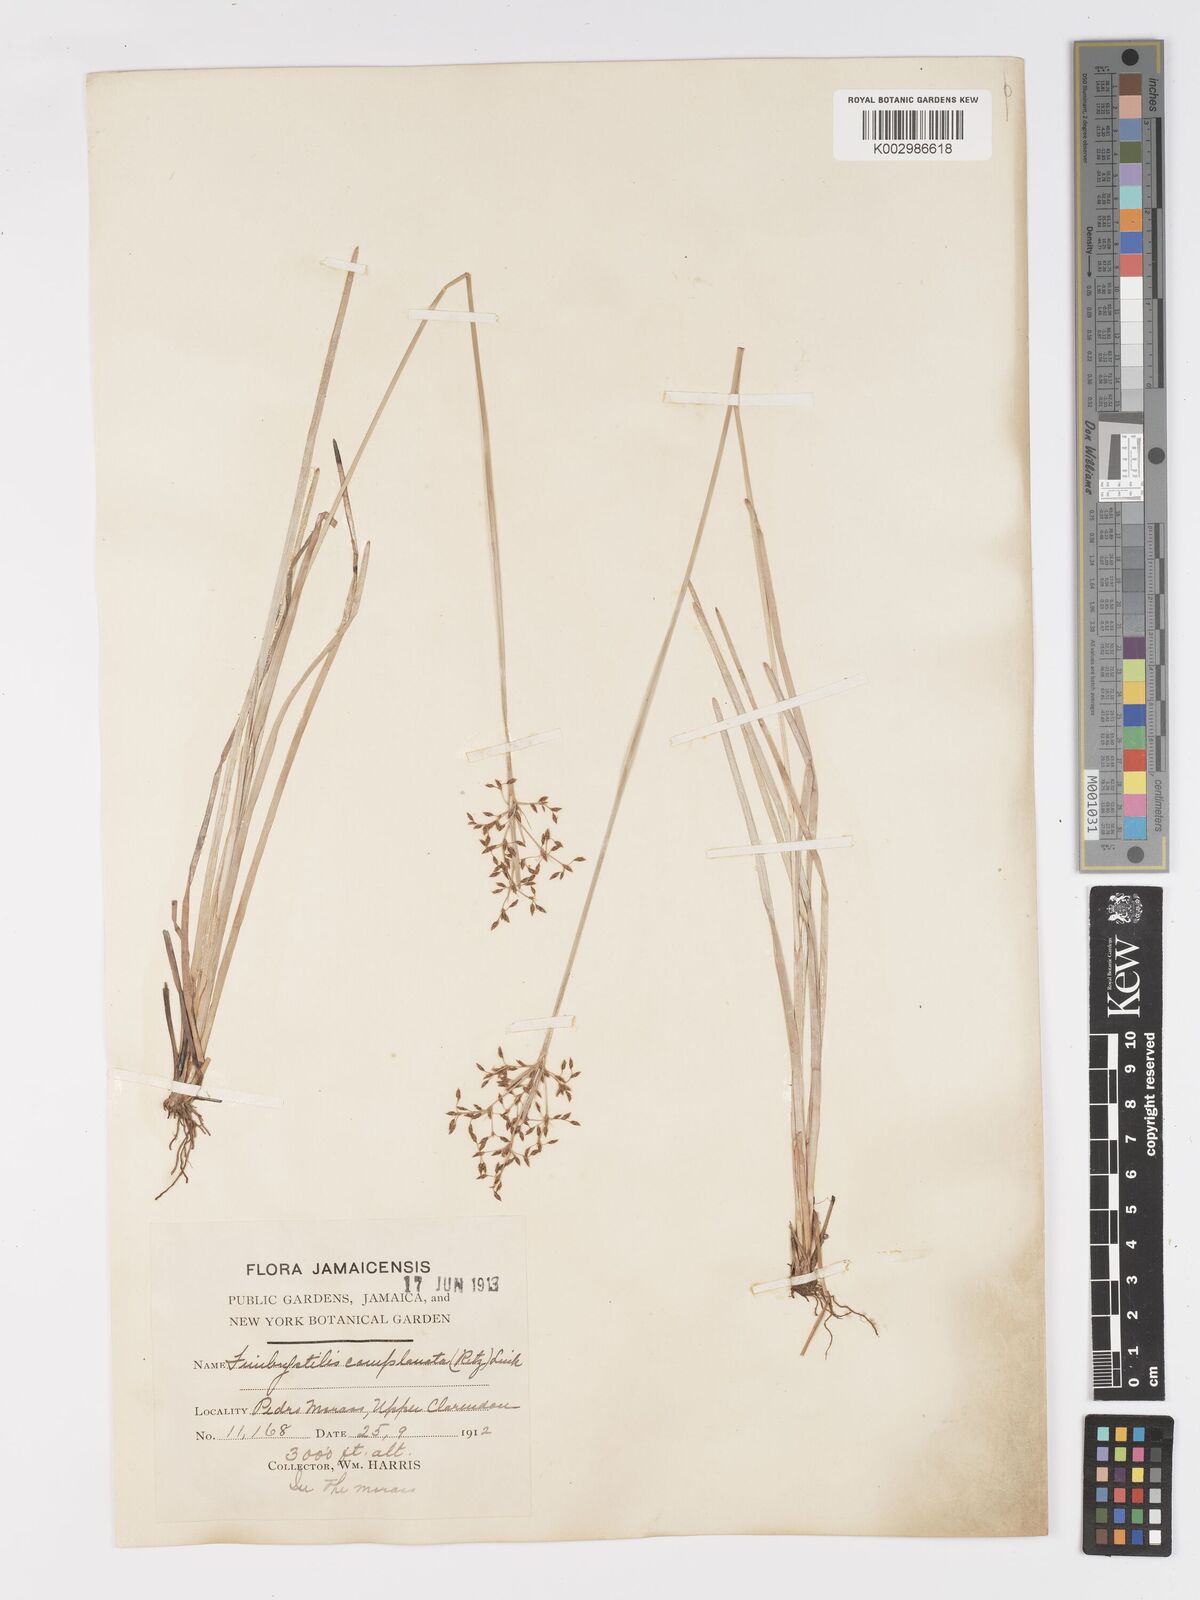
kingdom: Plantae
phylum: Tracheophyta
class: Liliopsida
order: Poales
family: Cyperaceae
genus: Fimbristylis
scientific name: Fimbristylis complanata
